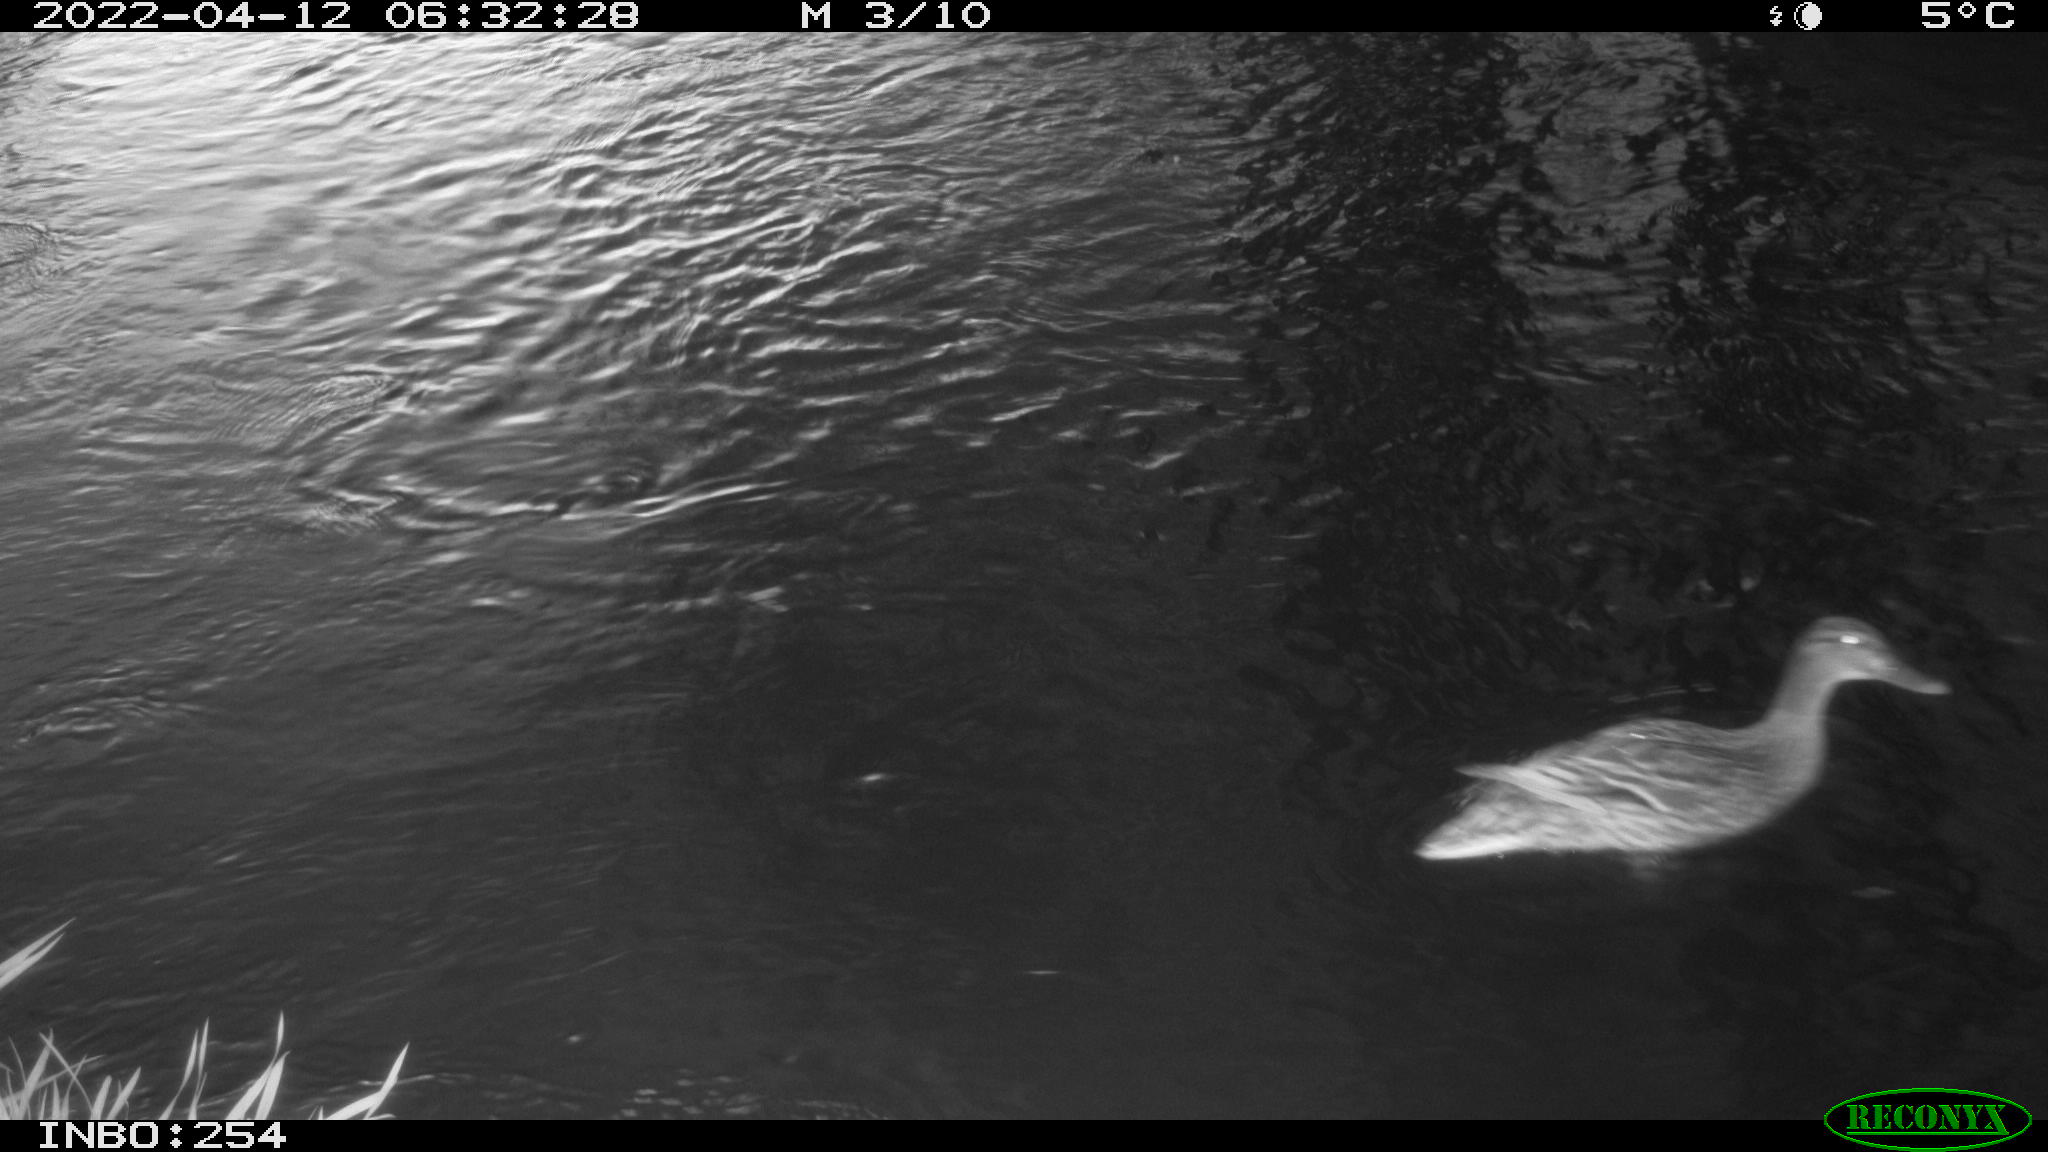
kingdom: Animalia
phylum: Chordata
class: Aves
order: Anseriformes
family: Anatidae
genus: Anas
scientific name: Anas platyrhynchos
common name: Mallard
